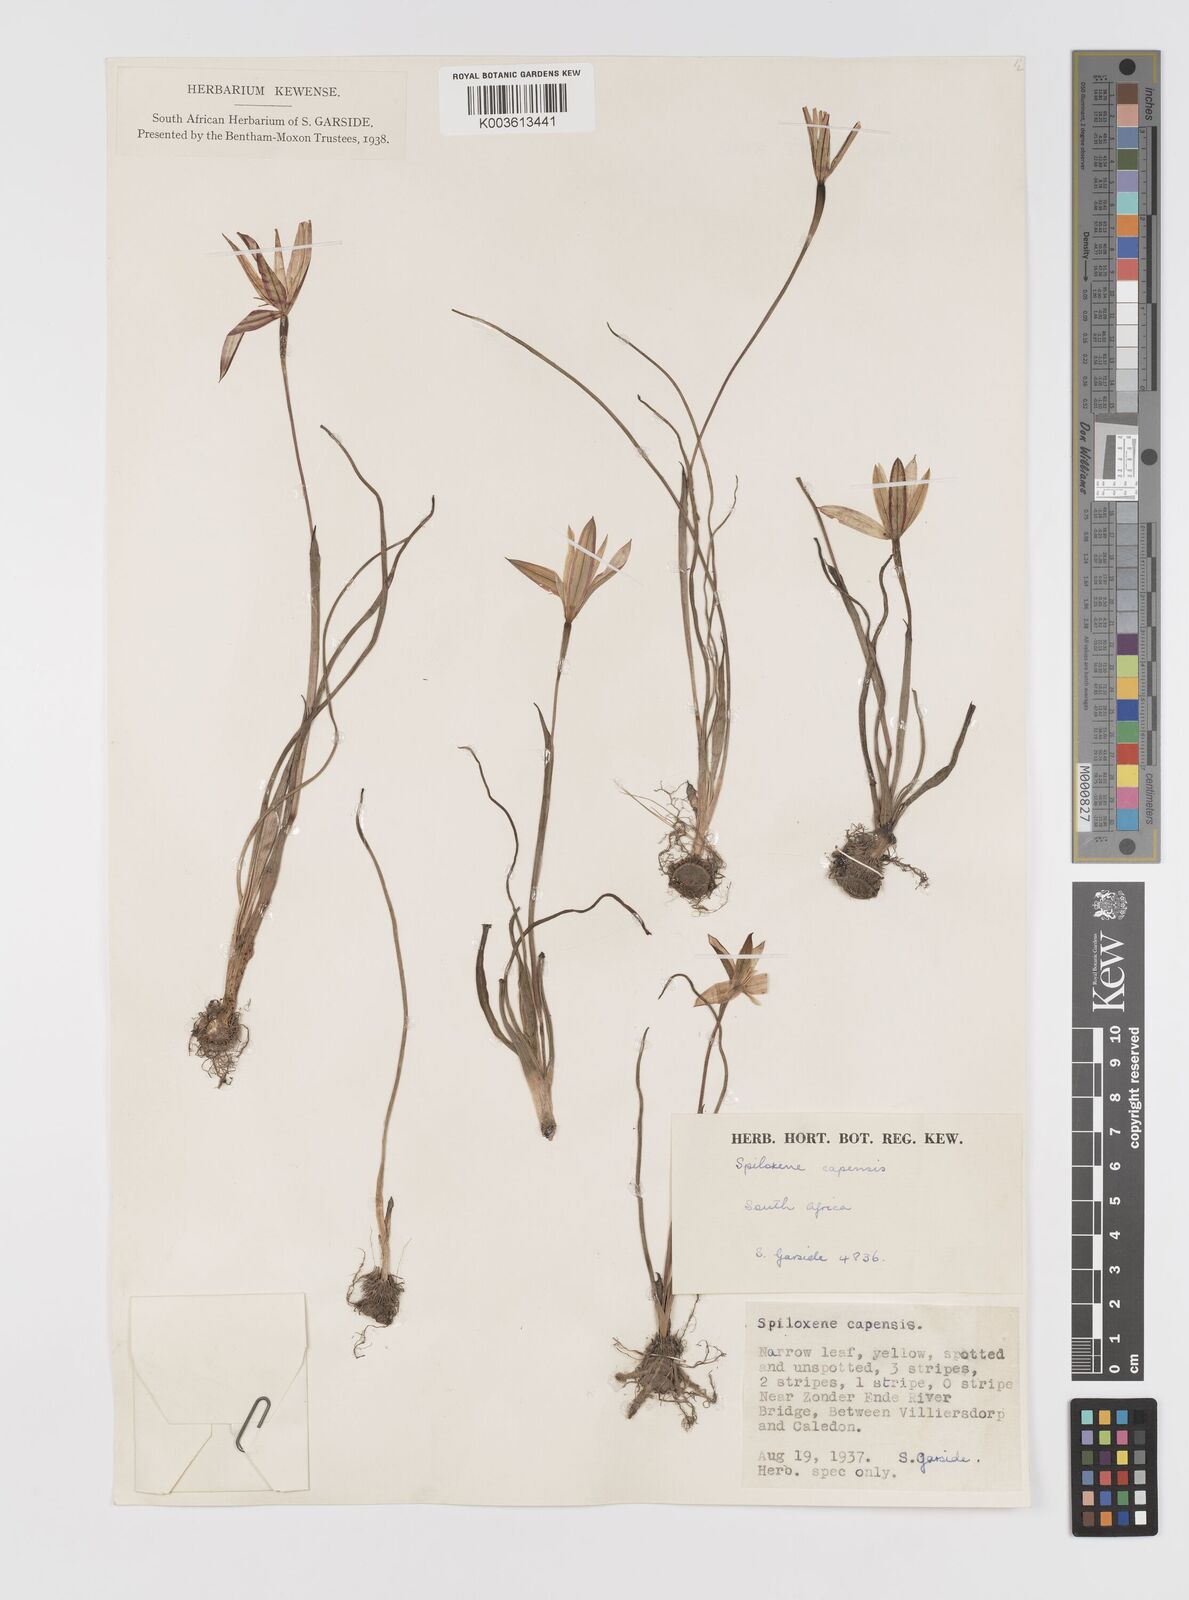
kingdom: Plantae
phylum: Tracheophyta
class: Liliopsida
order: Asparagales
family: Hypoxidaceae
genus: Pauridia
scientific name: Pauridia capensis
